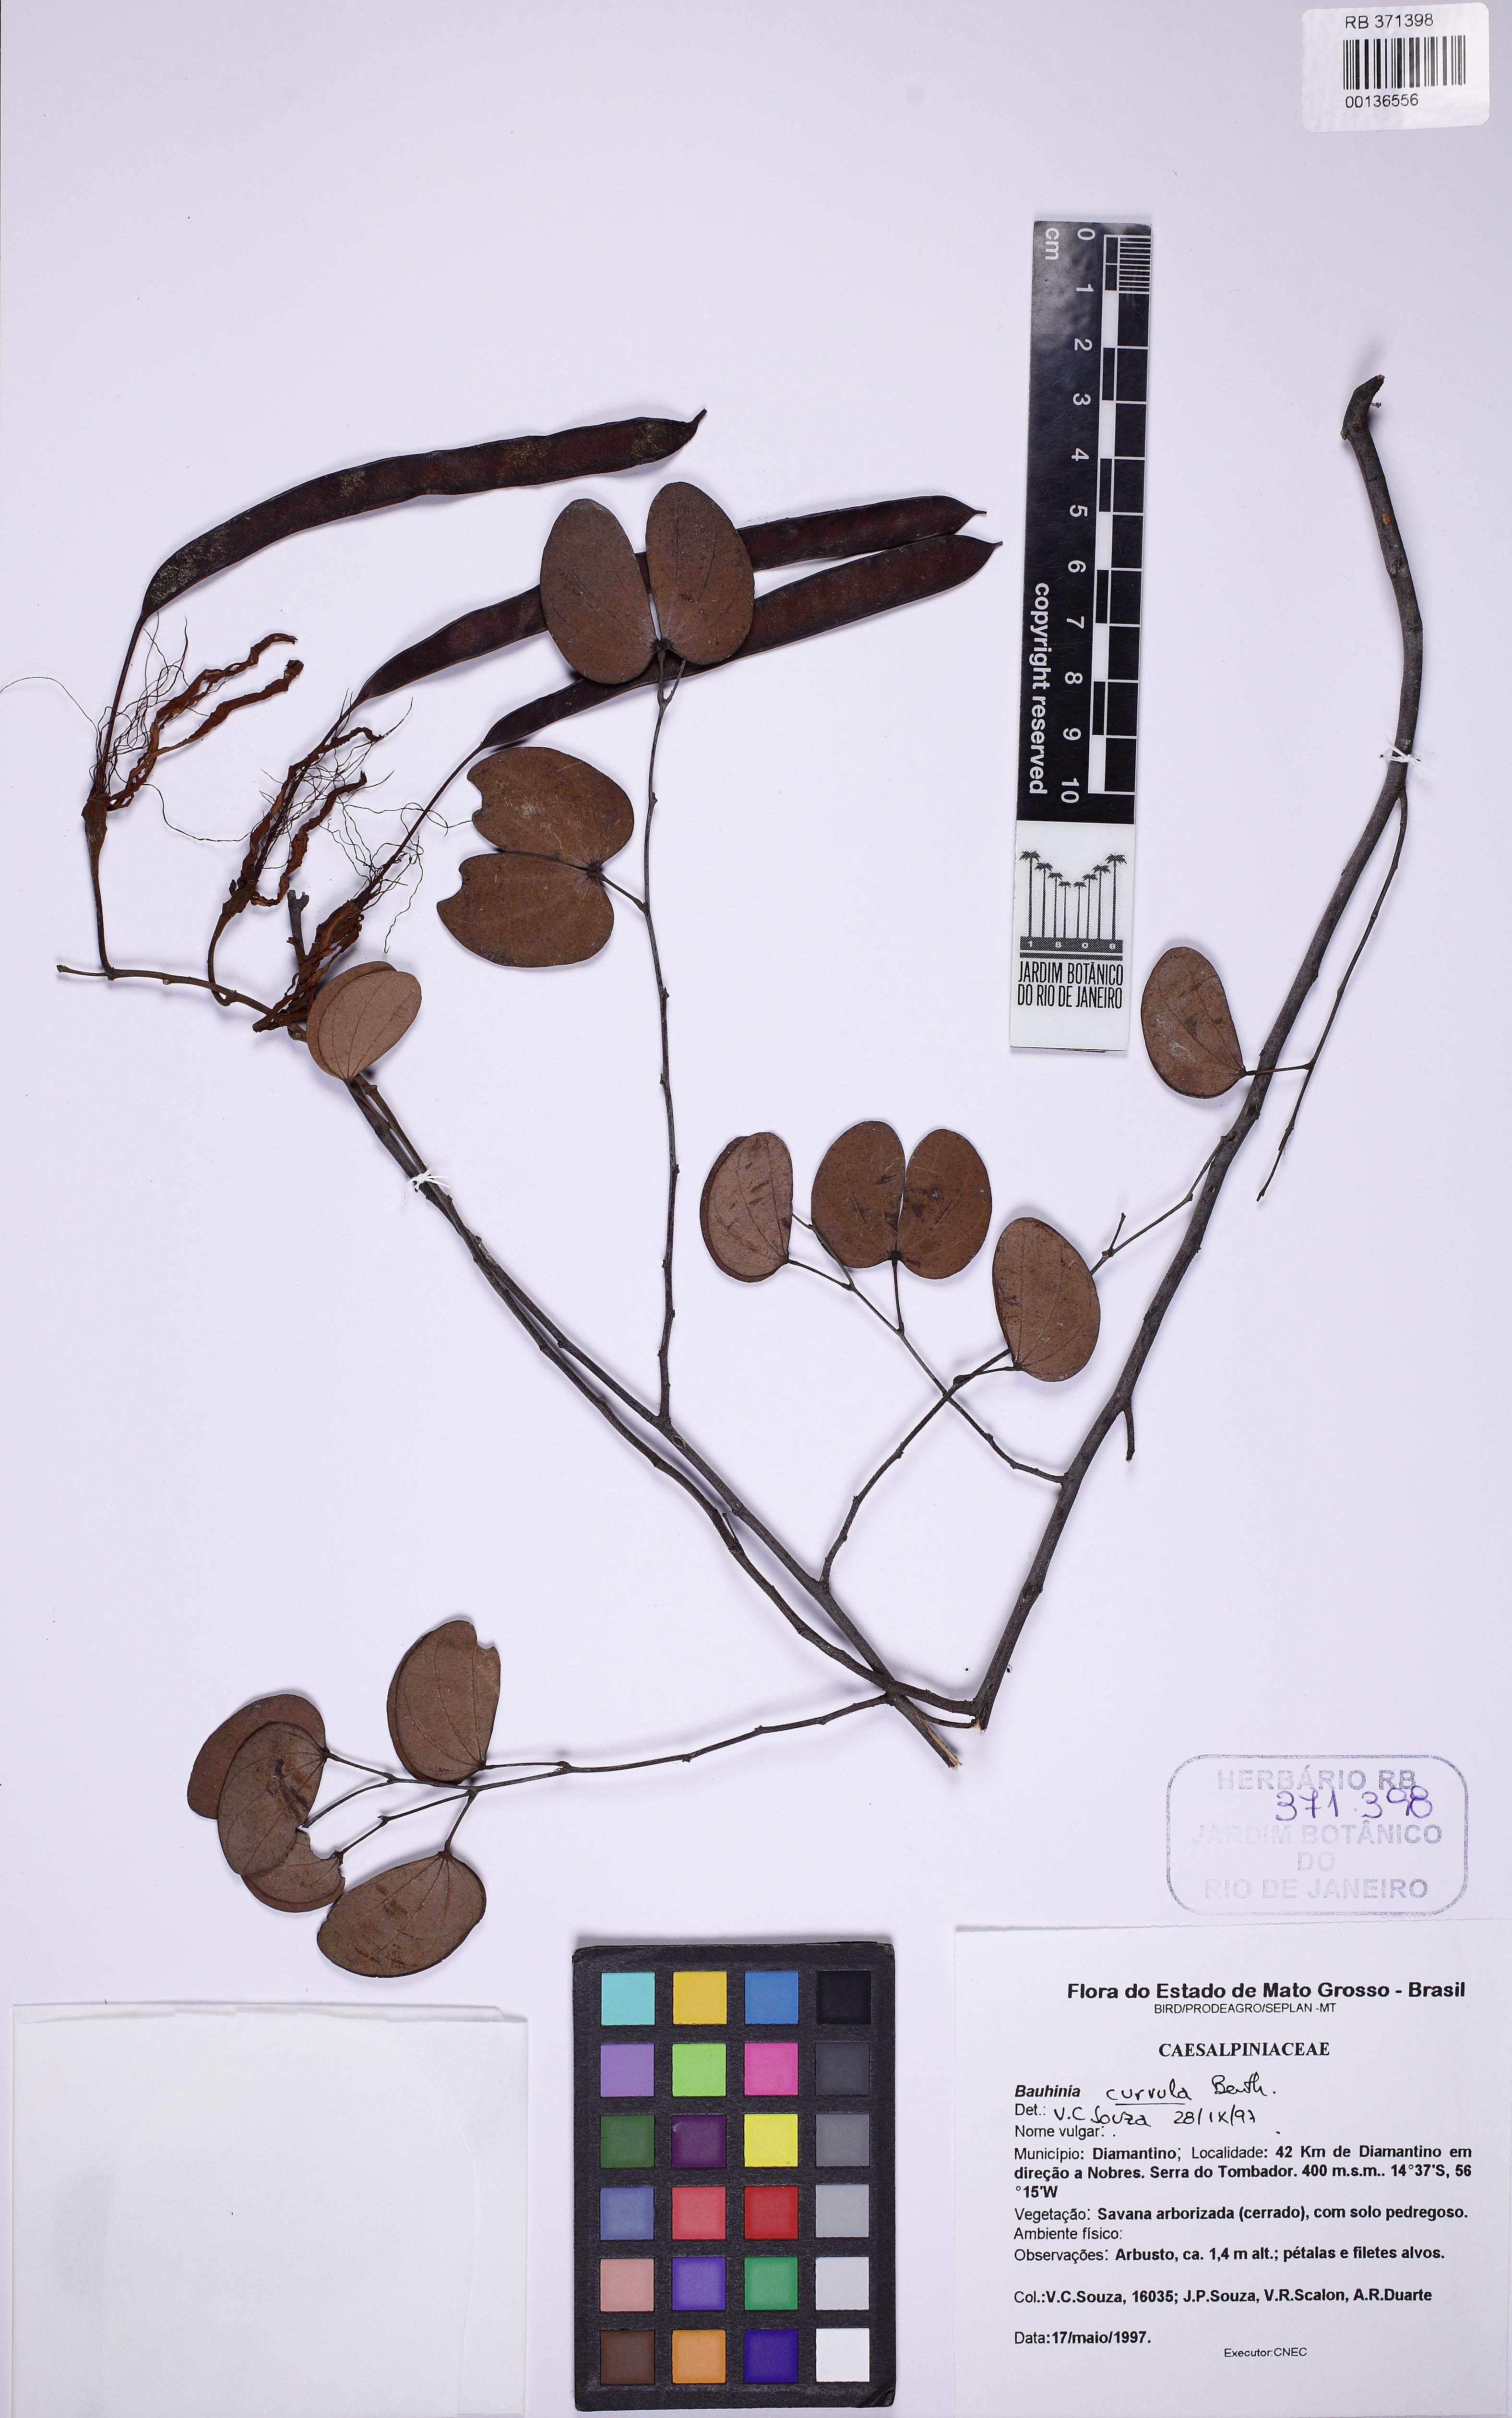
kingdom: Plantae
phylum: Tracheophyta
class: Magnoliopsida
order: Fabales
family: Fabaceae
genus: Bauhinia
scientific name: Bauhinia curvula
